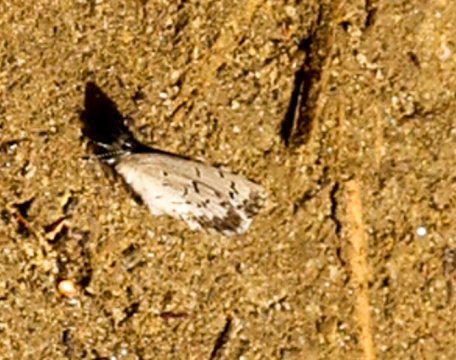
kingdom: Animalia
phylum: Arthropoda
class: Insecta
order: Lepidoptera
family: Lycaenidae
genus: Celastrina
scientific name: Celastrina lucia
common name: Northern Spring Azure
